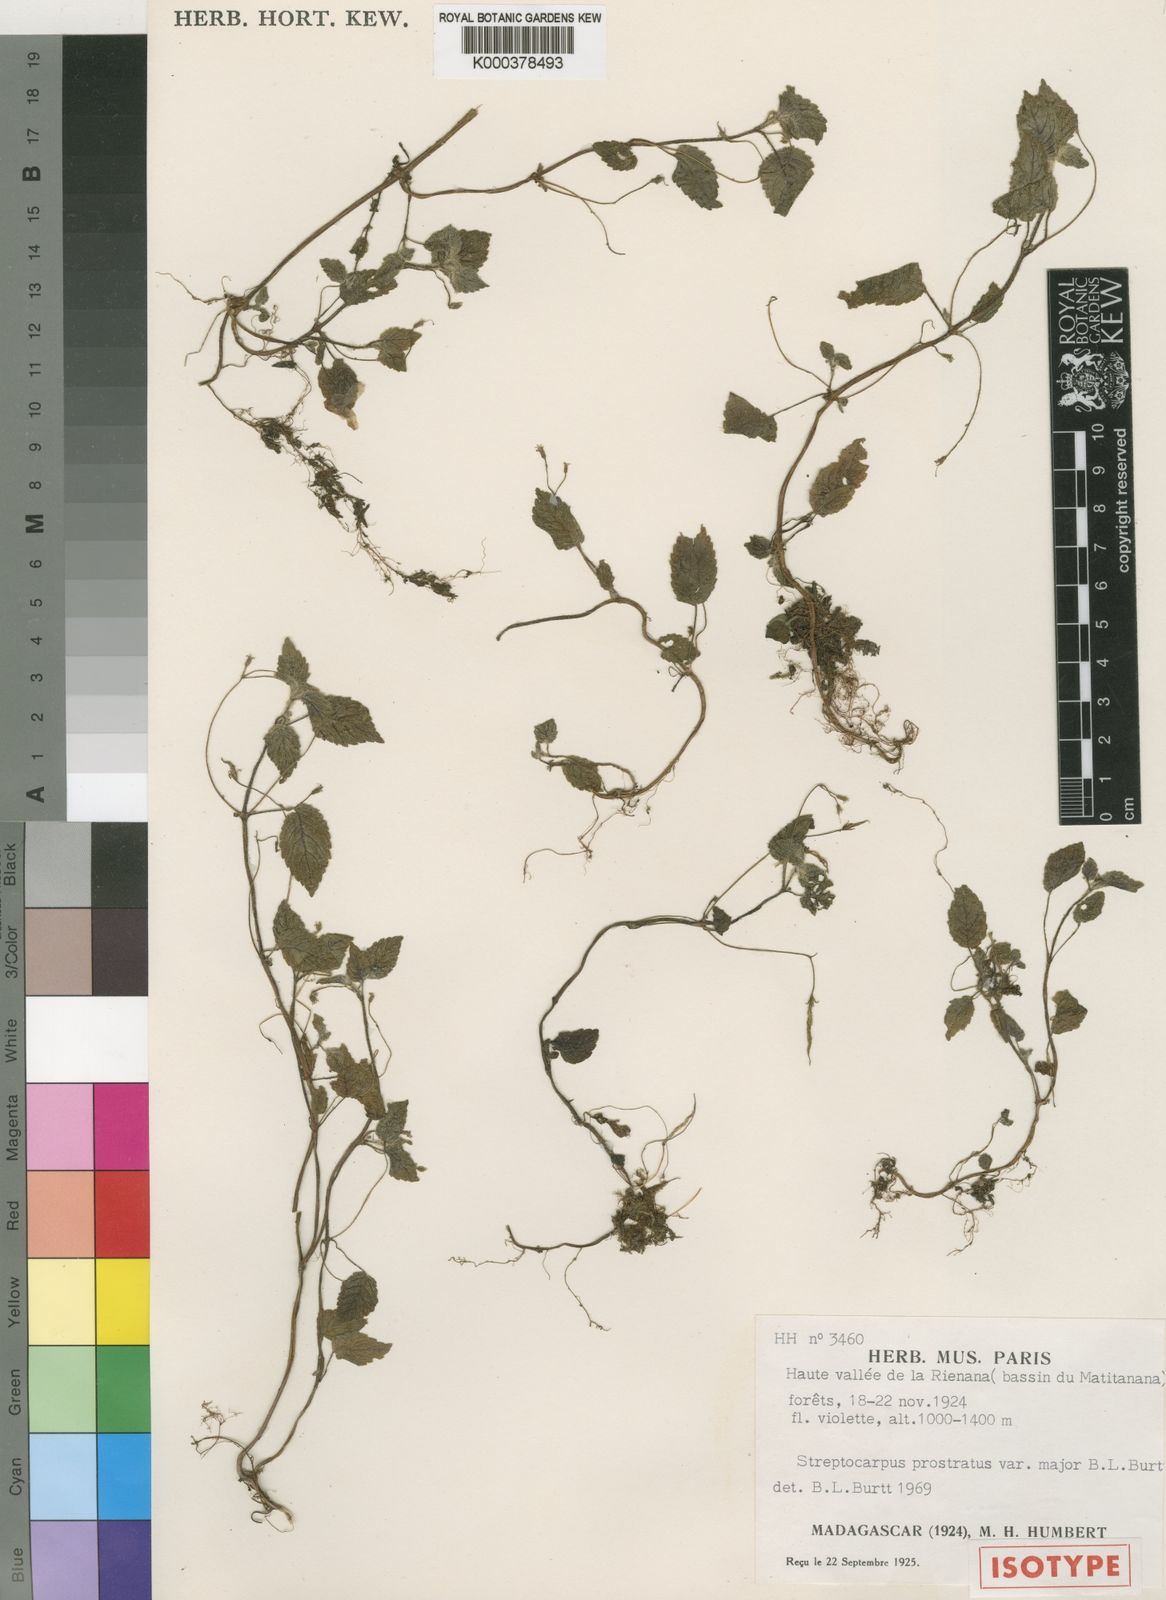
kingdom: Plantae
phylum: Tracheophyta
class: Magnoliopsida
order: Lamiales
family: Gesneriaceae
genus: Streptocarpus
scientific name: Streptocarpus prostratus
